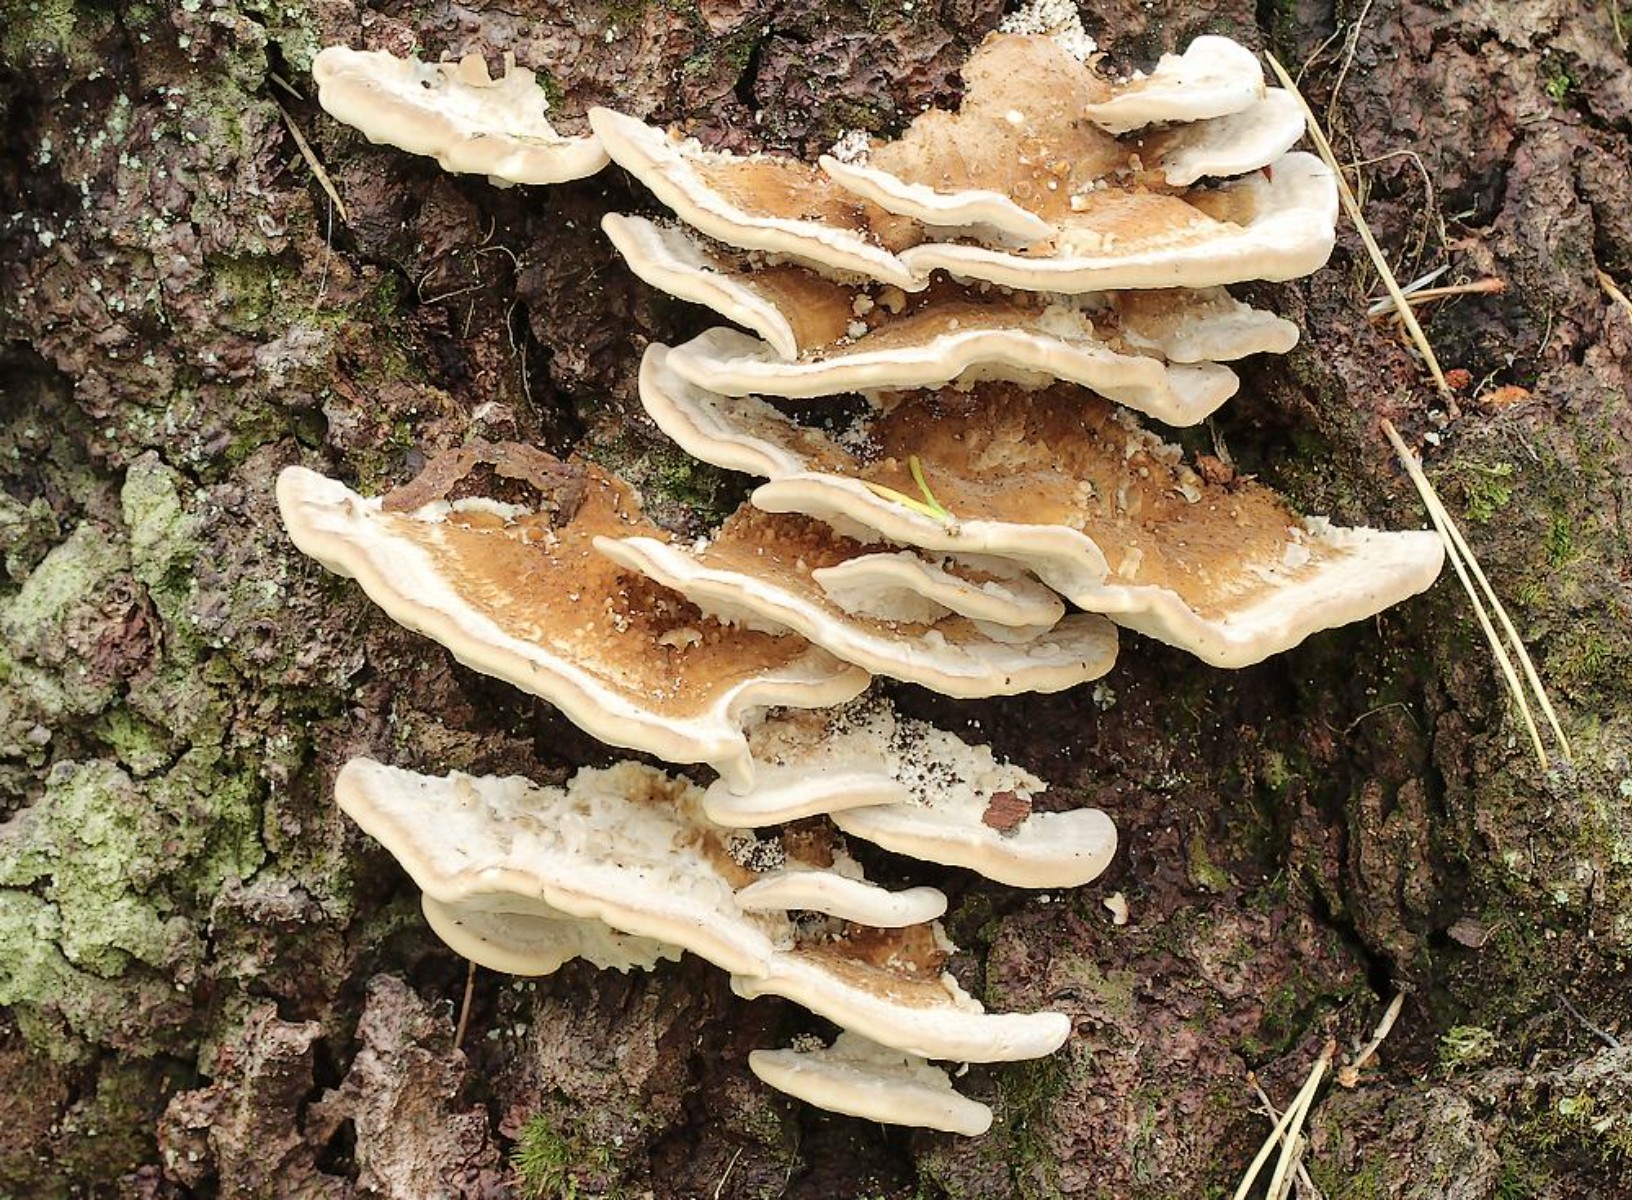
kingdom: Fungi
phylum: Basidiomycota
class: Agaricomycetes
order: Polyporales
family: Polyporaceae
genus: Trametes
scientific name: Trametes ochracea
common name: bæltet læderporesvamp
